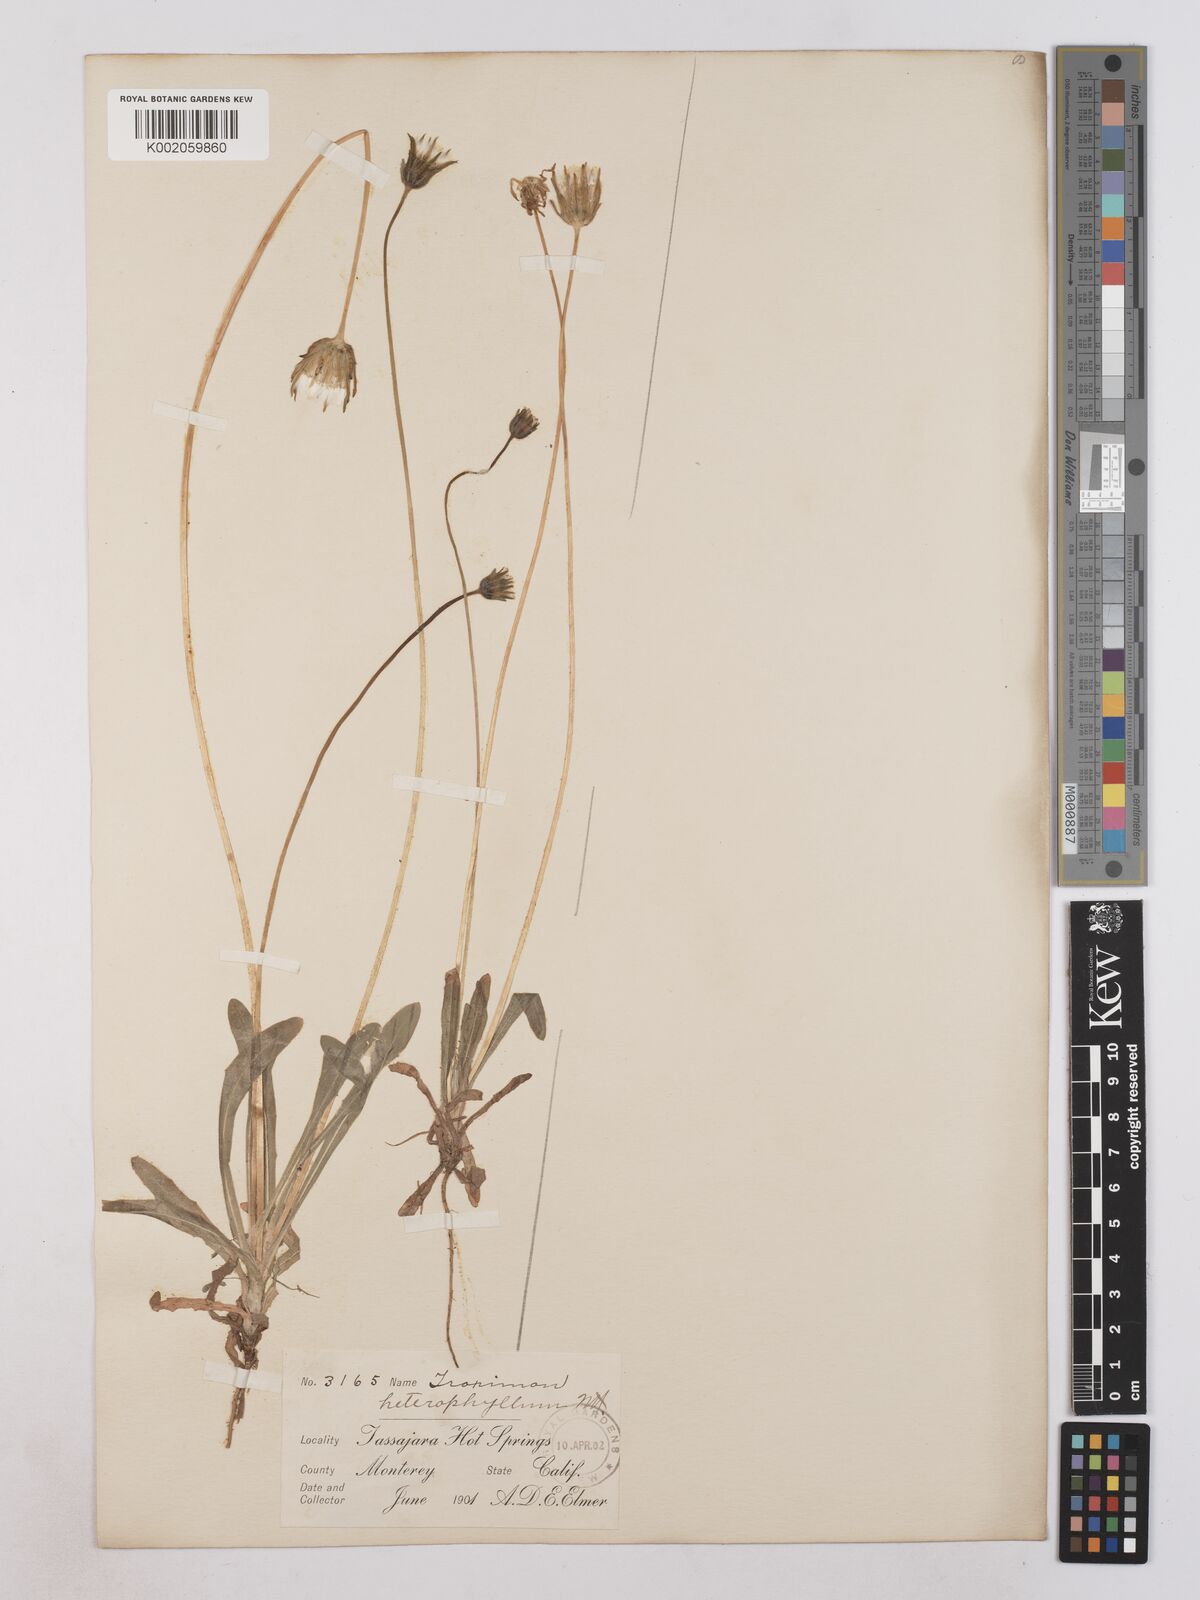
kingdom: Plantae
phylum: Tracheophyta
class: Magnoliopsida
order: Asterales
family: Asteraceae
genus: Agoseris
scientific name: Agoseris heterophylla
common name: Annual agoseris
